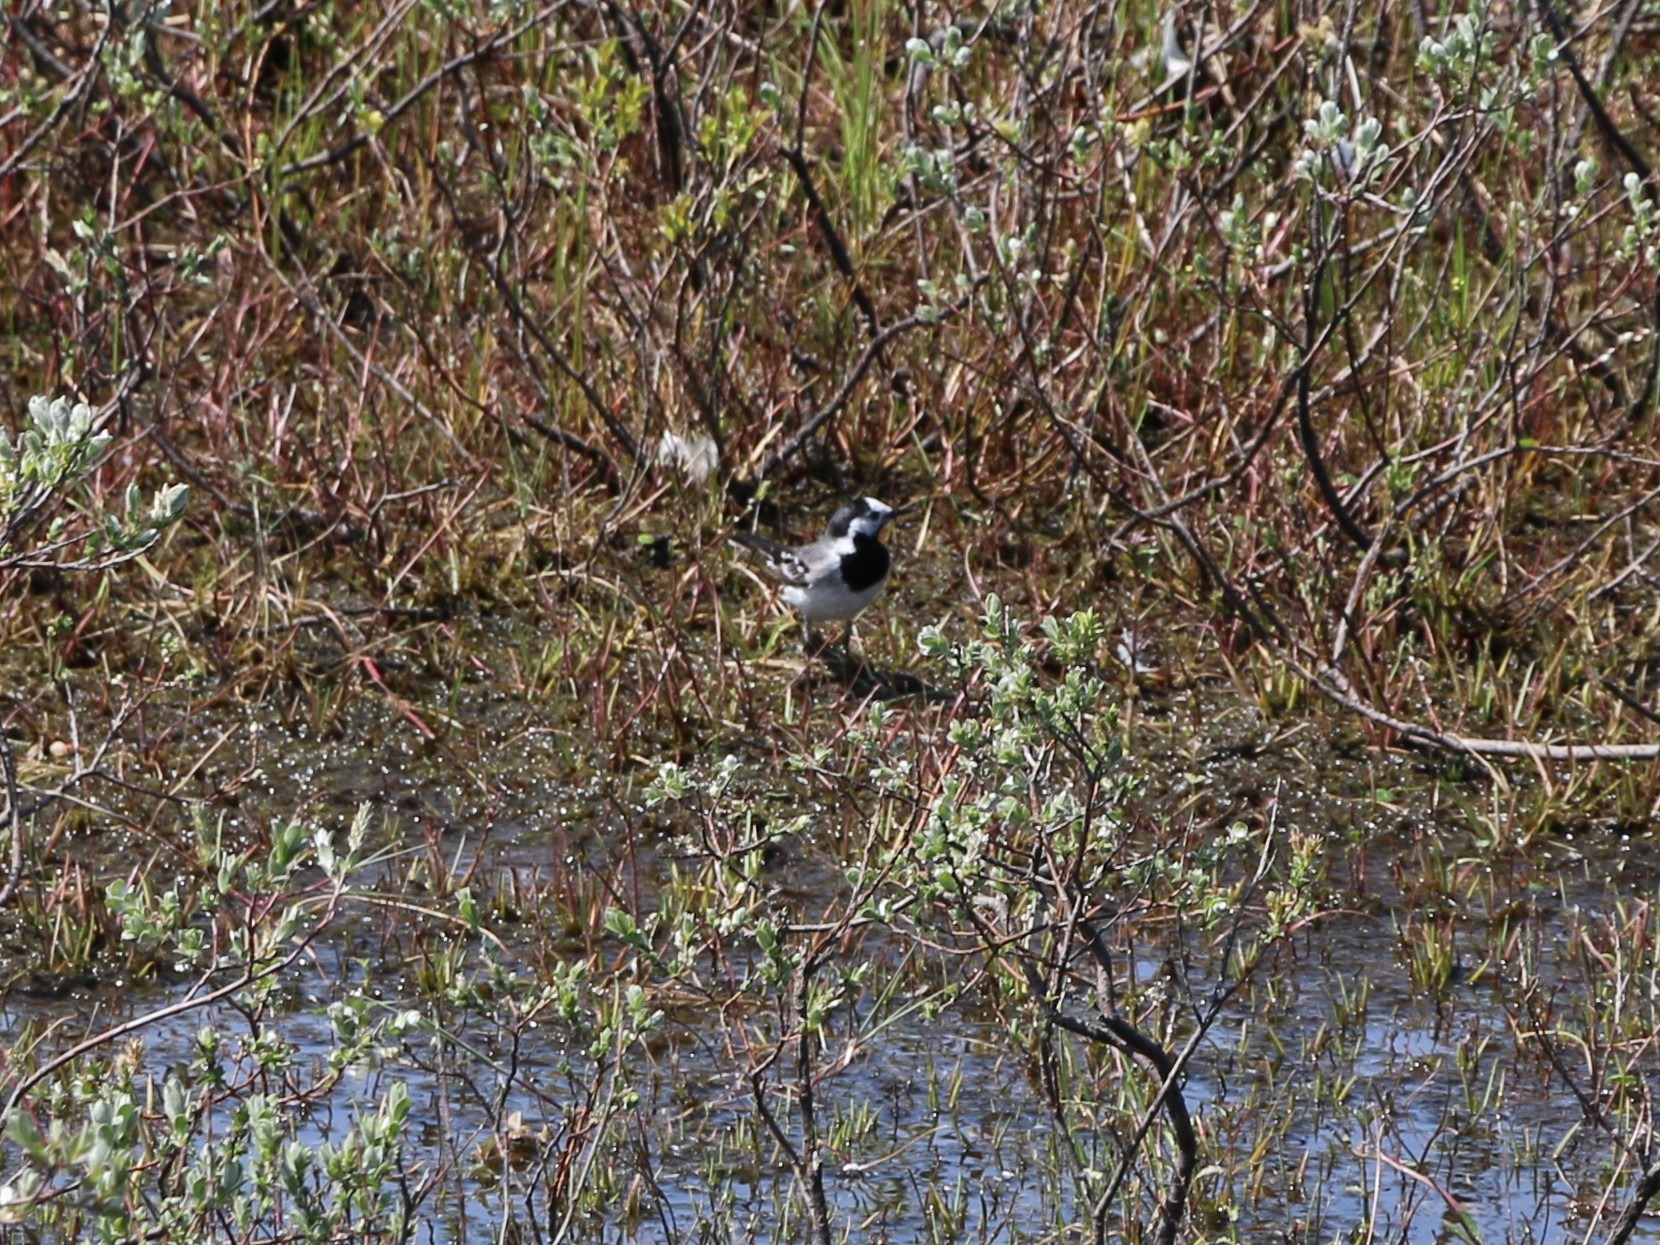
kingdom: Animalia
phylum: Chordata
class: Aves
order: Passeriformes
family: Motacillidae
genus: Motacilla
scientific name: Motacilla alba
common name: Hvid vipstjert
